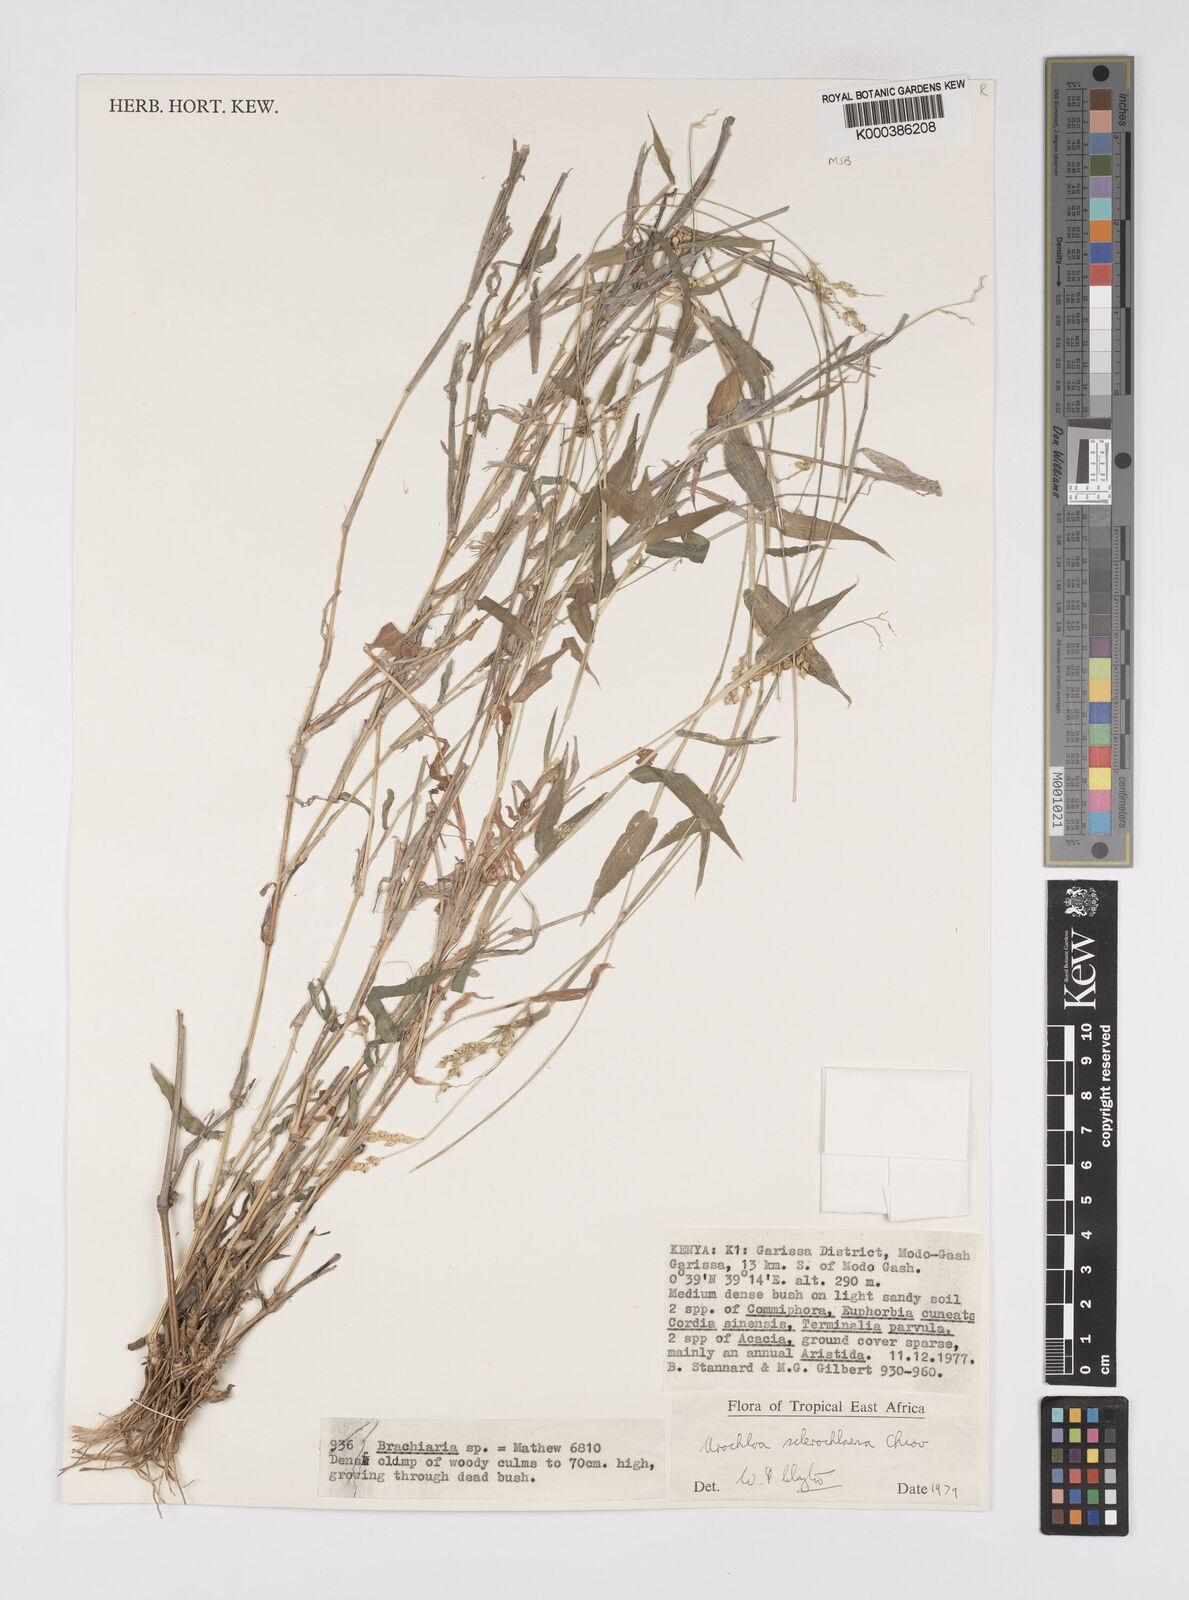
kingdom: Plantae
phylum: Tracheophyta
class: Liliopsida
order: Poales
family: Poaceae
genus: Urochloa
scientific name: Urochloa sclerochlaena
